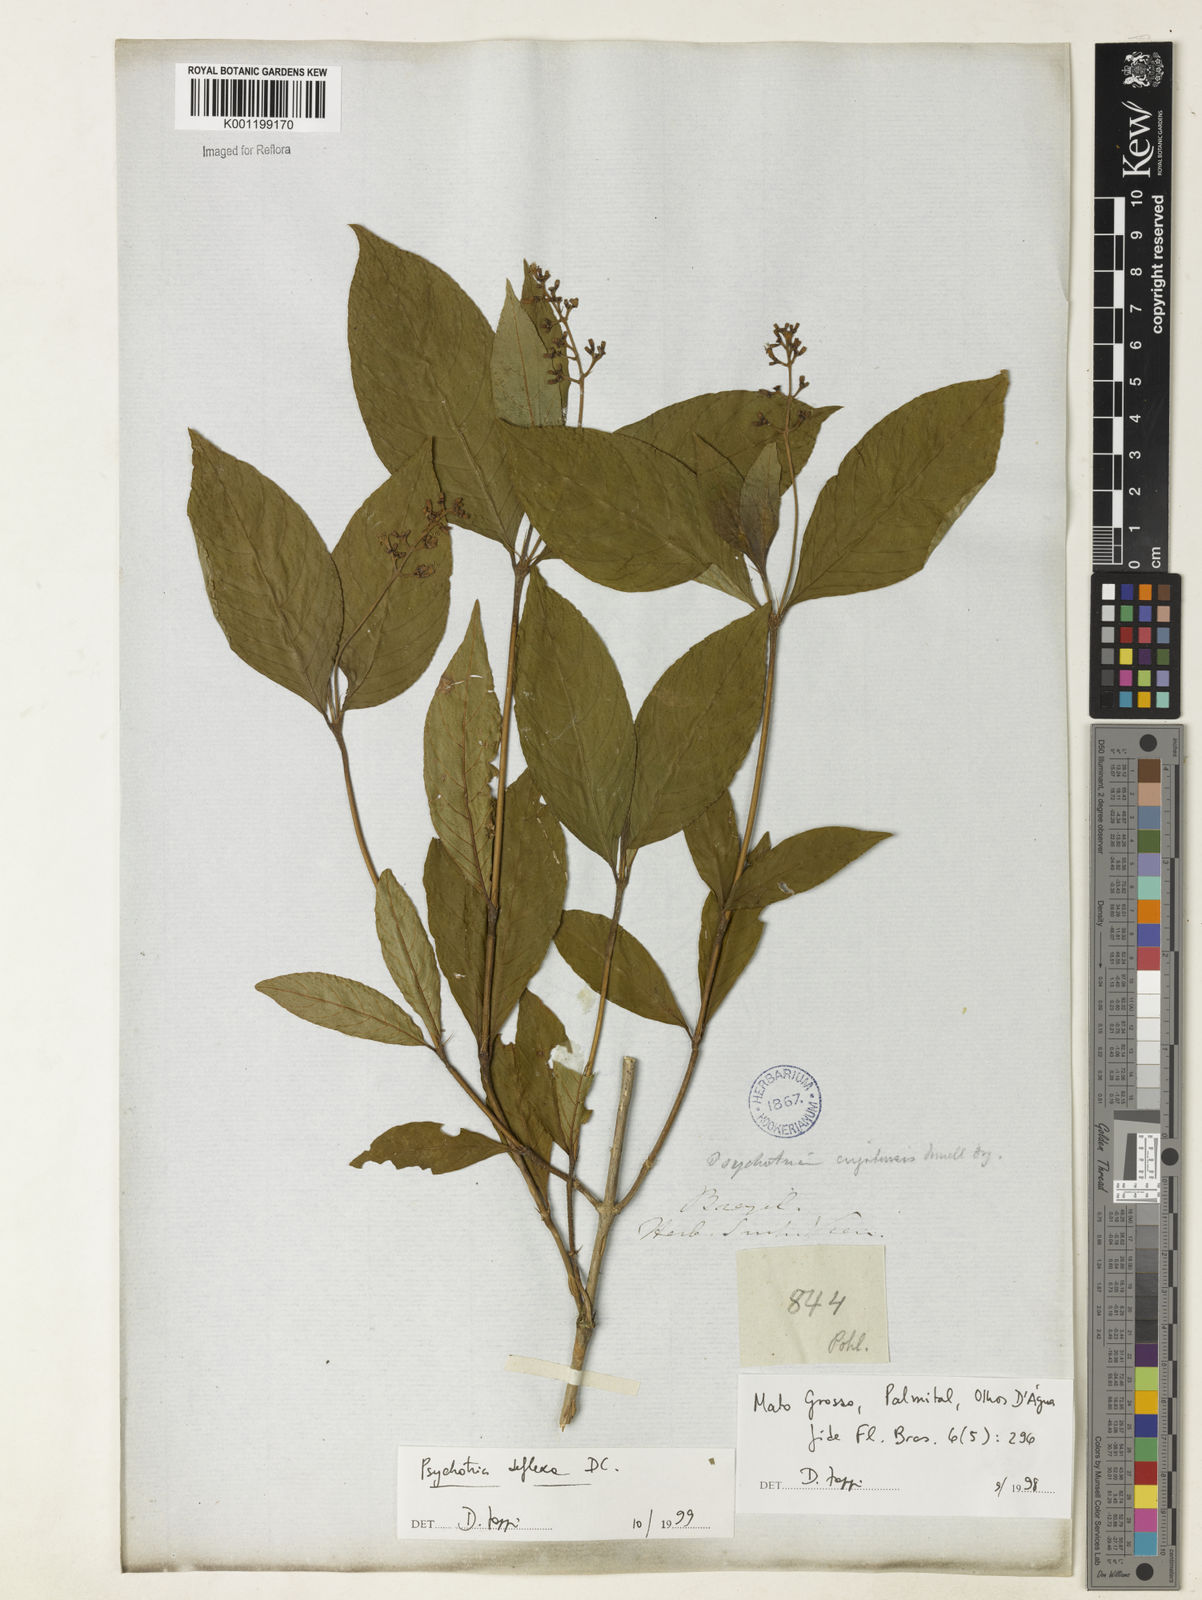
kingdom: Plantae
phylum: Tracheophyta
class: Magnoliopsida
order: Gentianales
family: Rubiaceae
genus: Palicourea
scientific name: Palicourea deflexa
